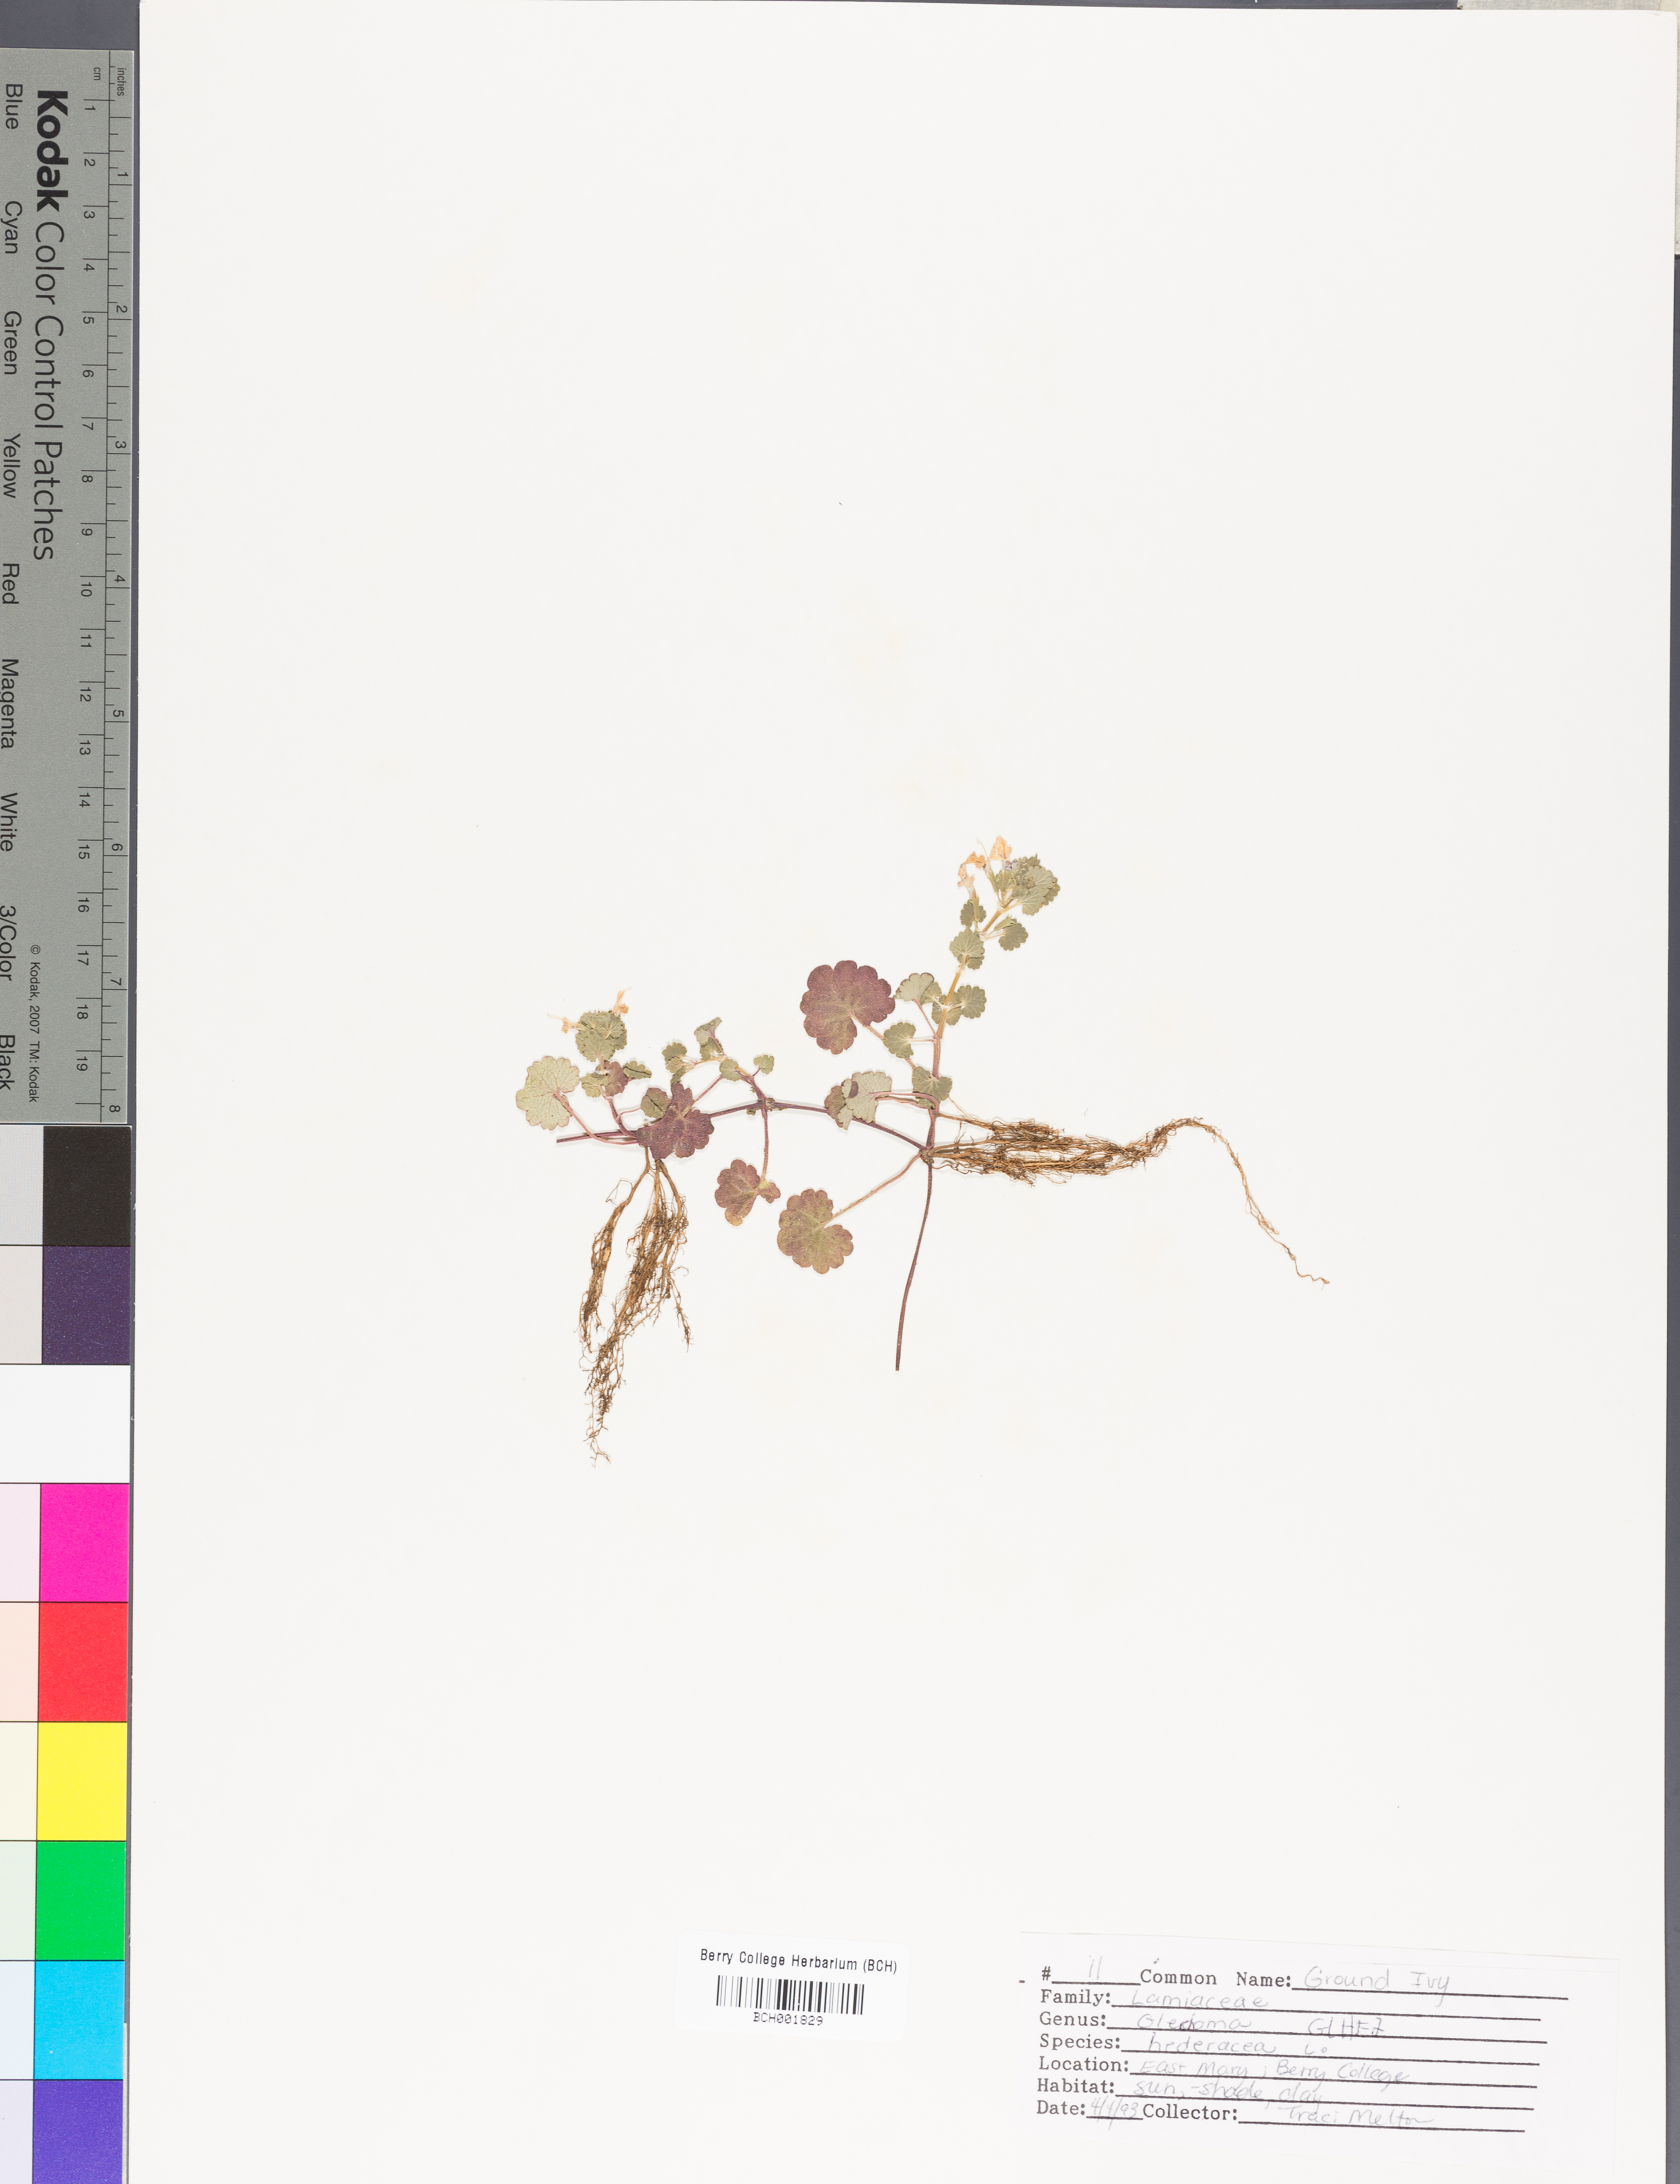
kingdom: Plantae
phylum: Tracheophyta
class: Magnoliopsida
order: Lamiales
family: Lamiaceae
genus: Glechoma
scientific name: Glechoma hederacea
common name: Ground ivy
